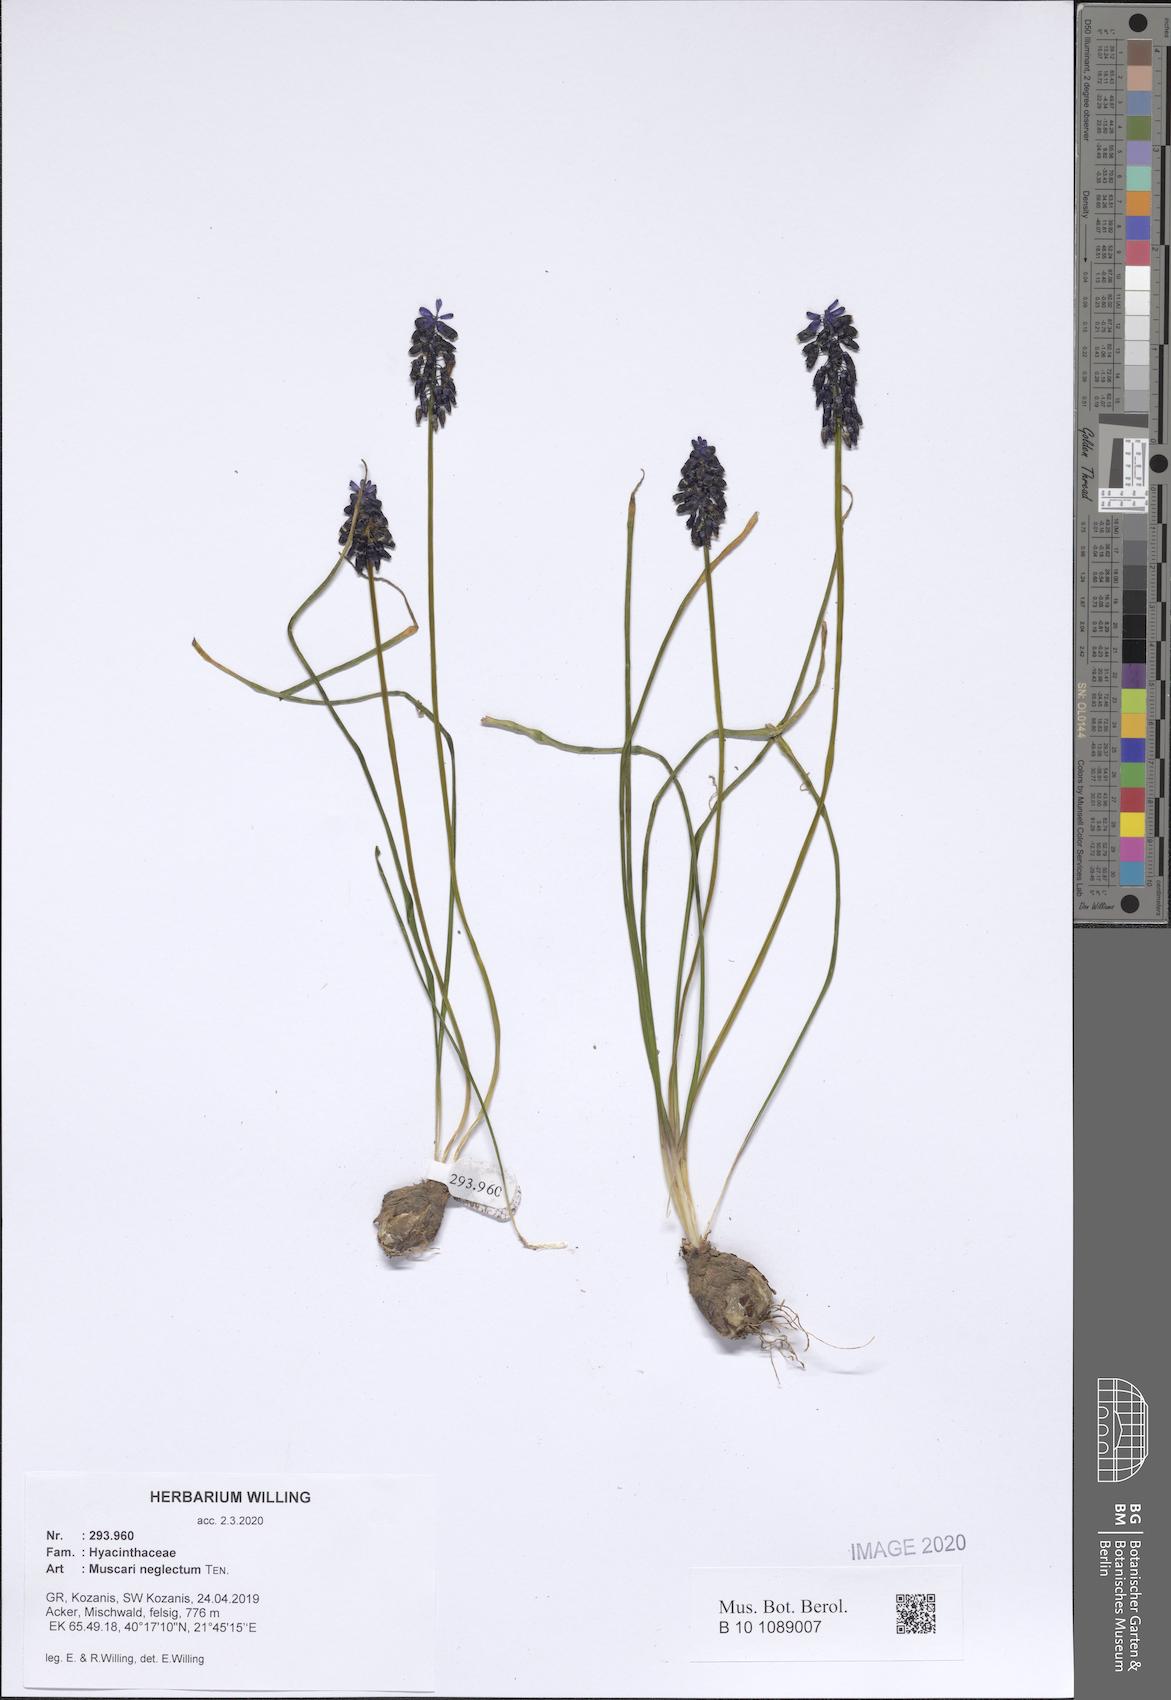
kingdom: Plantae
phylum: Tracheophyta
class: Liliopsida
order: Asparagales
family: Asparagaceae
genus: Muscari
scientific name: Muscari neglectum
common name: Grape-hyacinth
